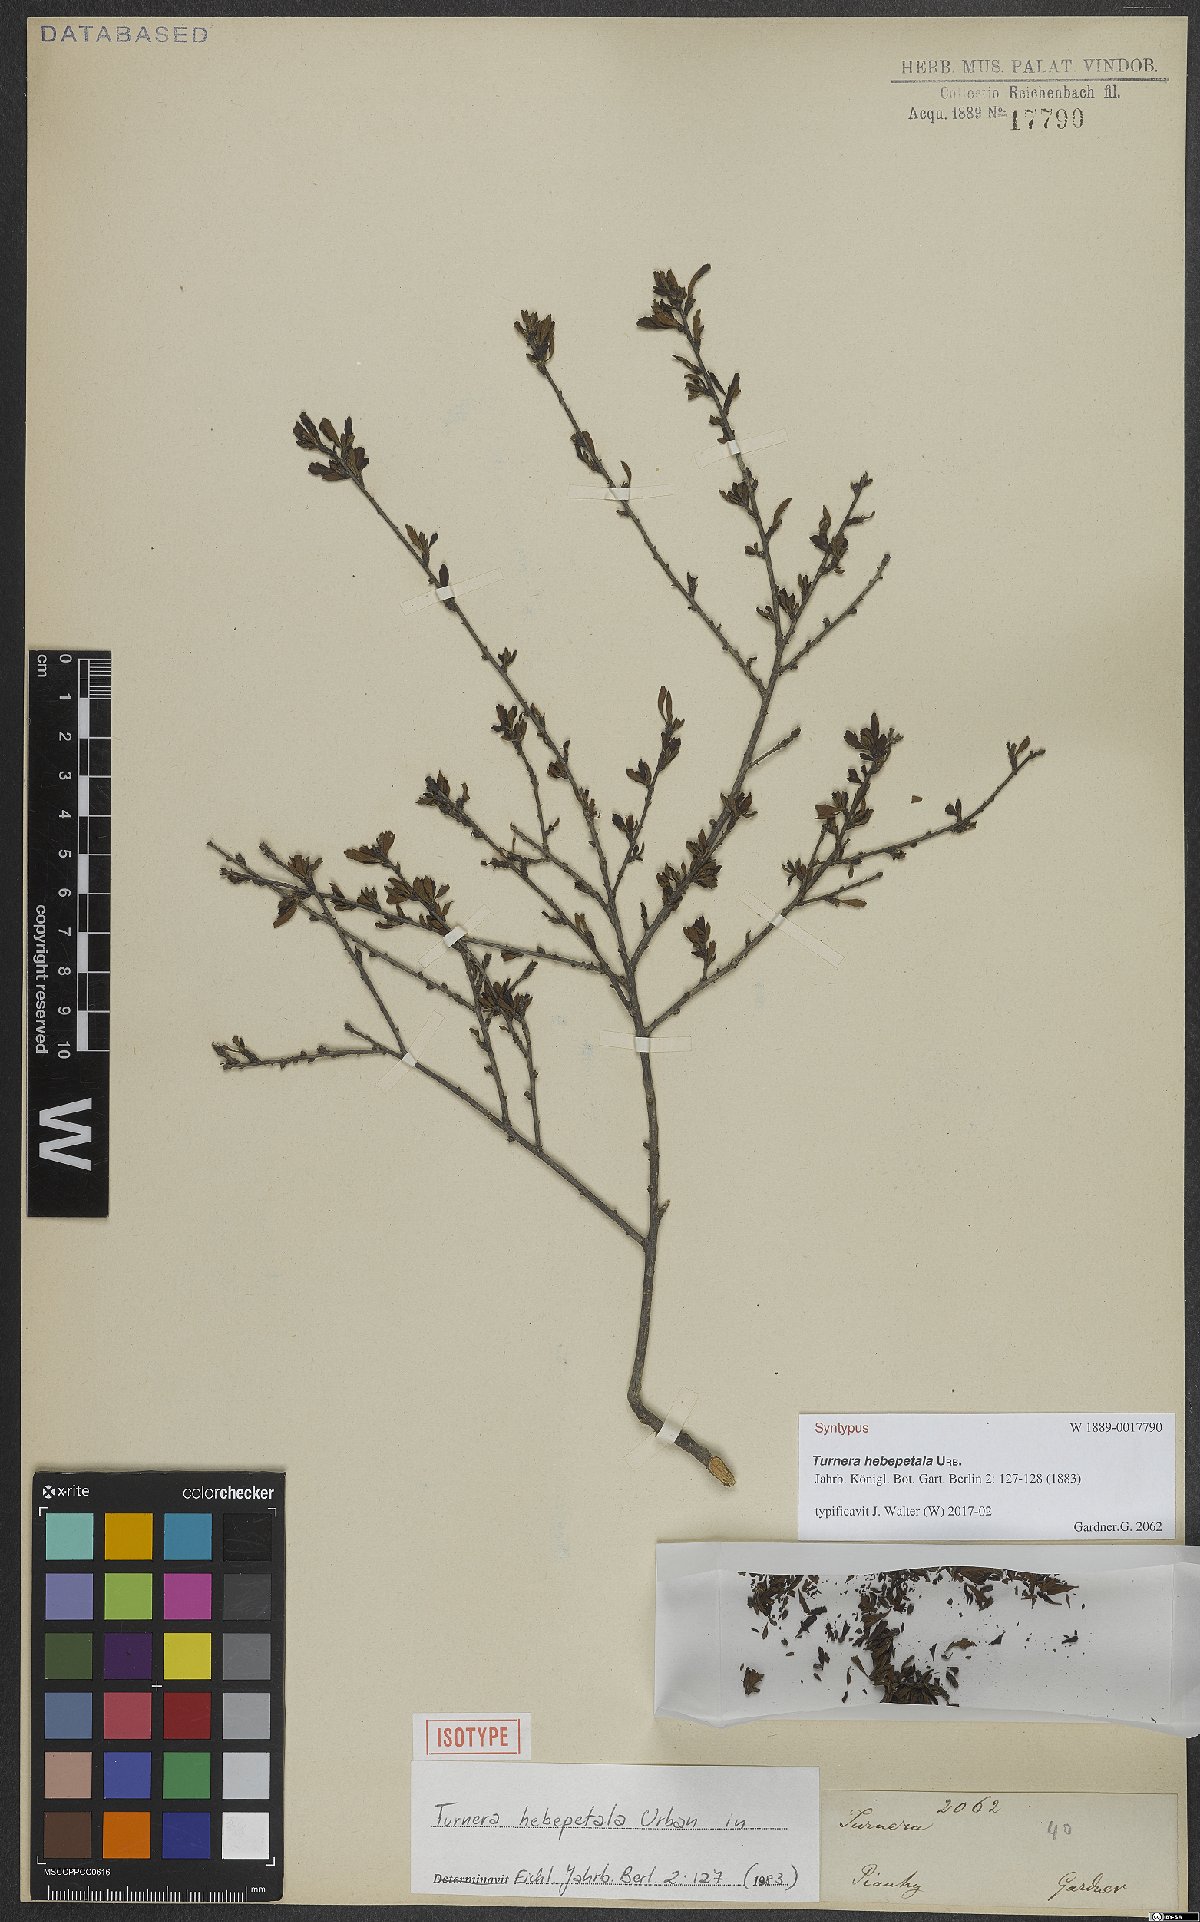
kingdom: Plantae
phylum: Tracheophyta
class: Magnoliopsida
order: Malpighiales
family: Turneraceae
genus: Oxossia
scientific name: Oxossia hebepetala
